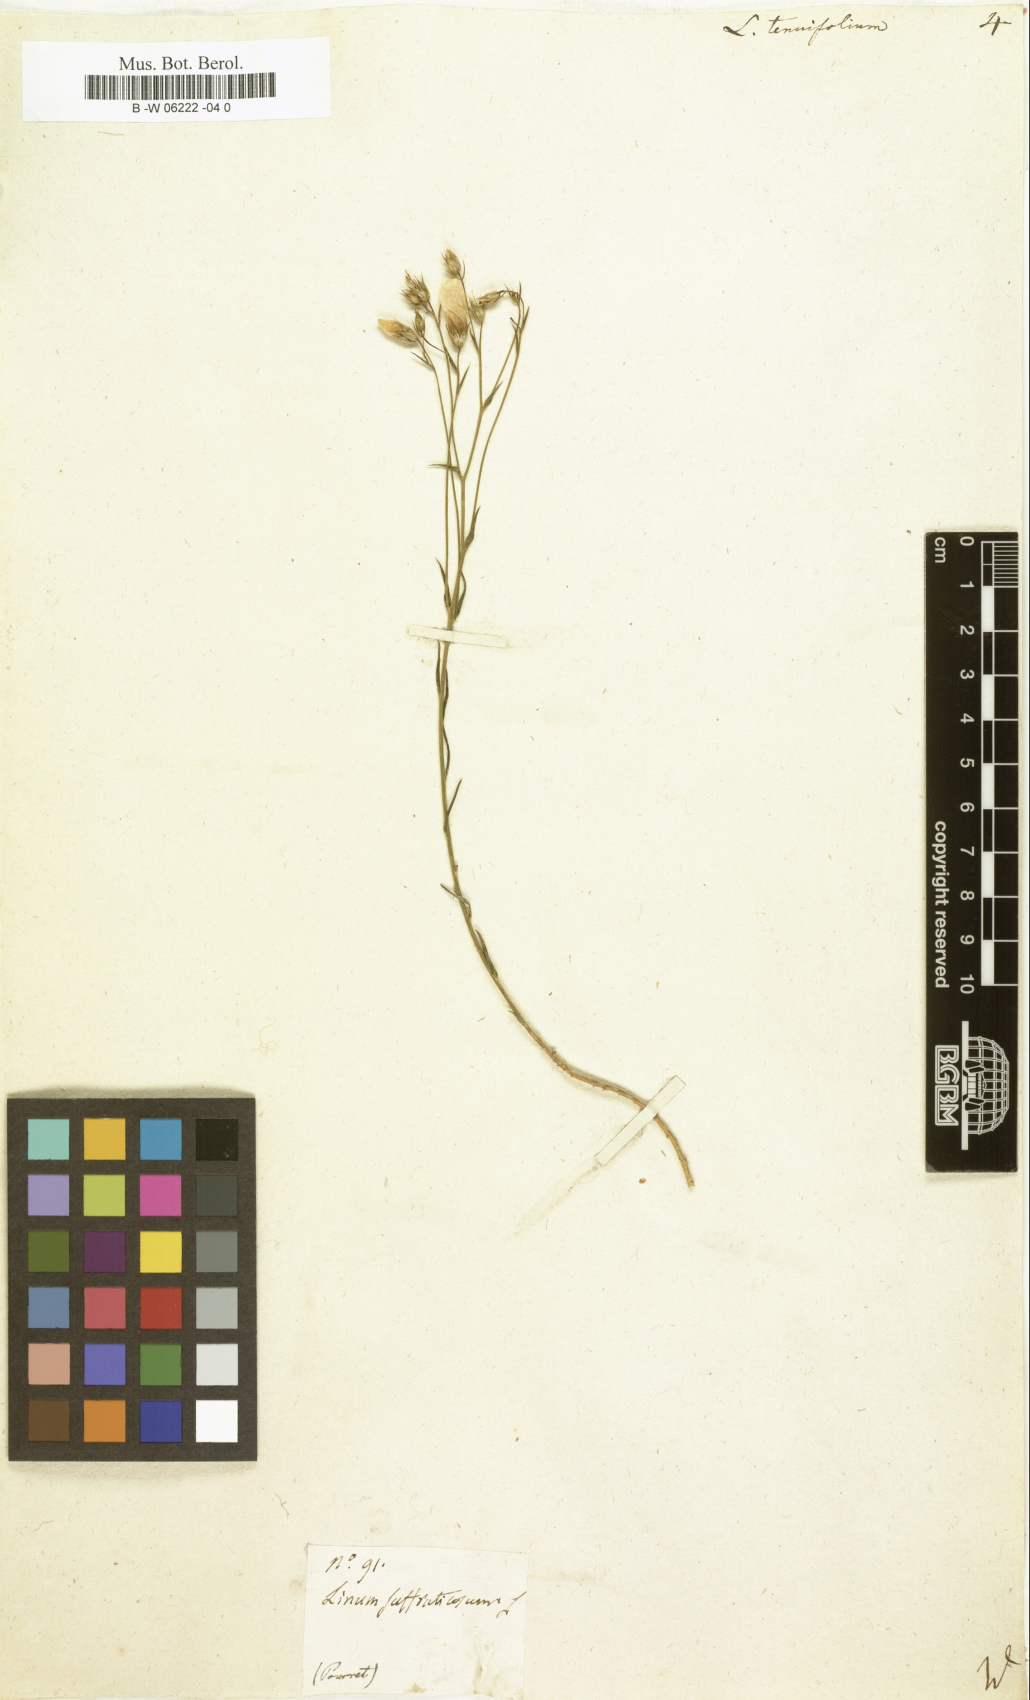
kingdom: Plantae
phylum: Tracheophyta
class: Magnoliopsida
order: Malpighiales
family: Linaceae
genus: Linum
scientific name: Linum tenuifolium
